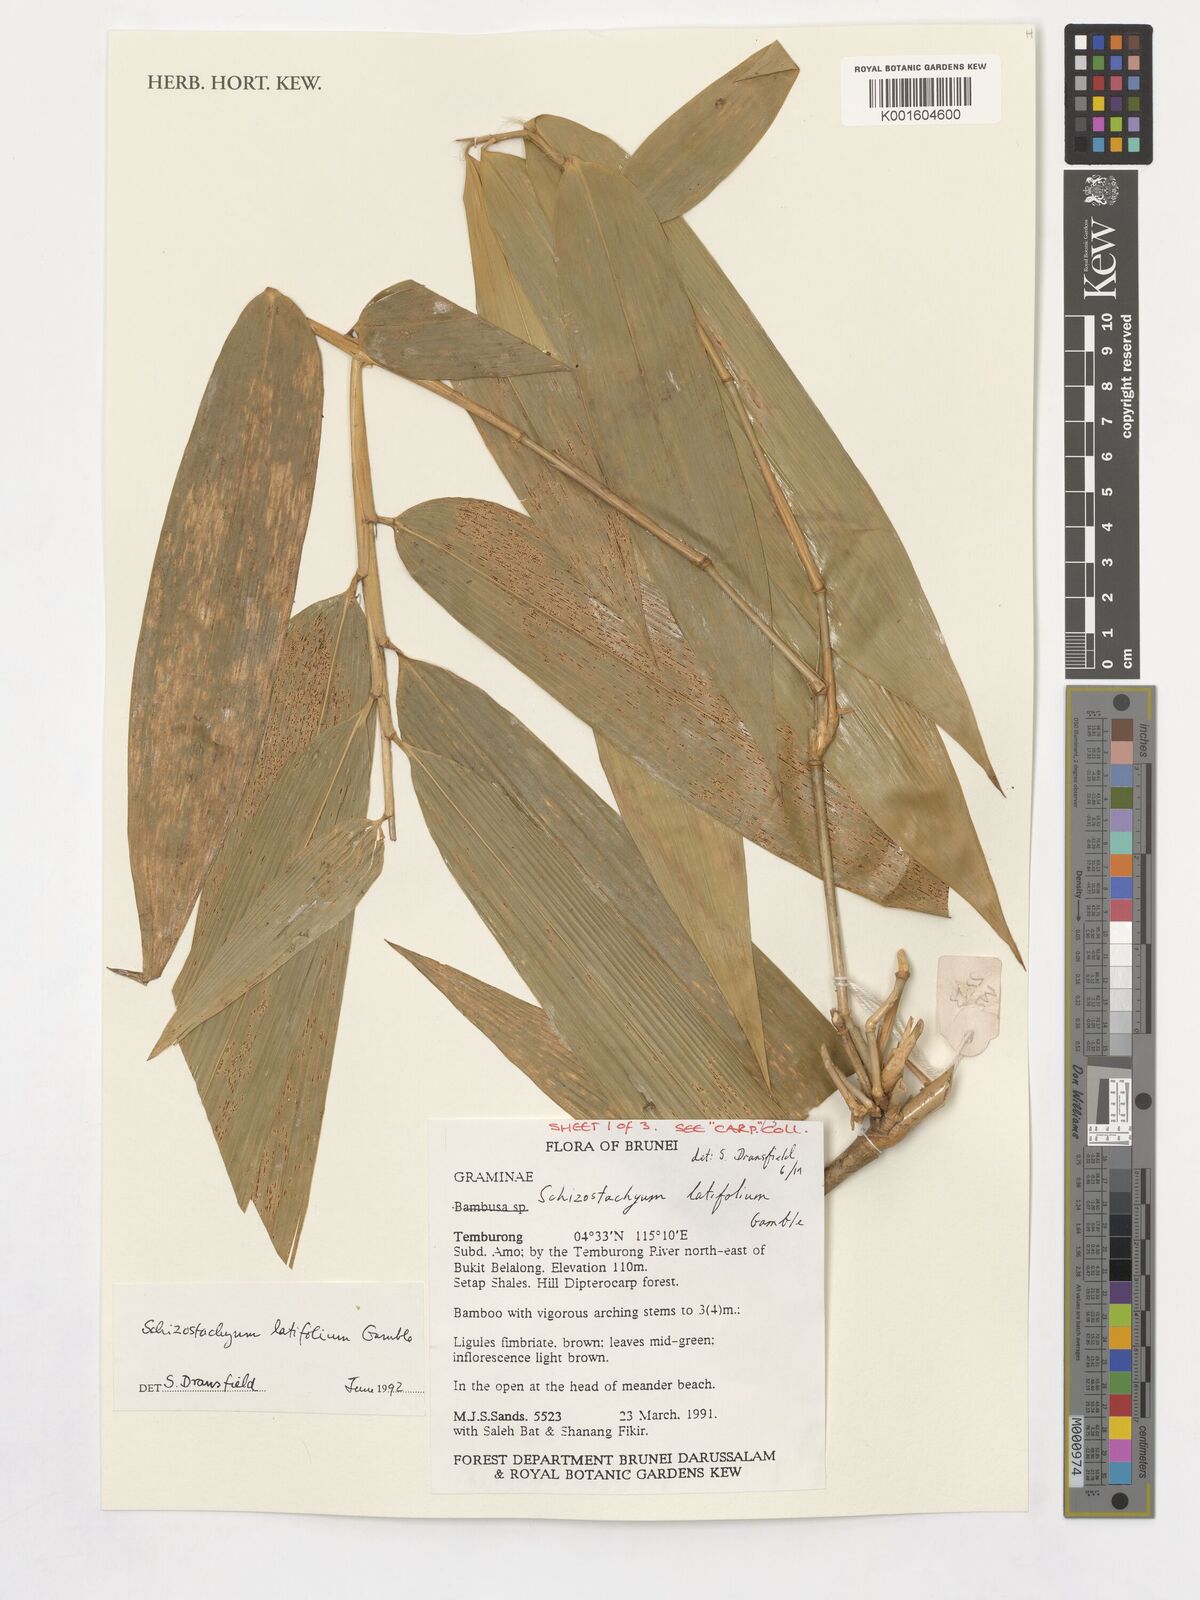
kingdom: Plantae
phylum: Tracheophyta
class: Liliopsida
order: Poales
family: Poaceae
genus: Schizostachyum
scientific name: Schizostachyum latifolium
